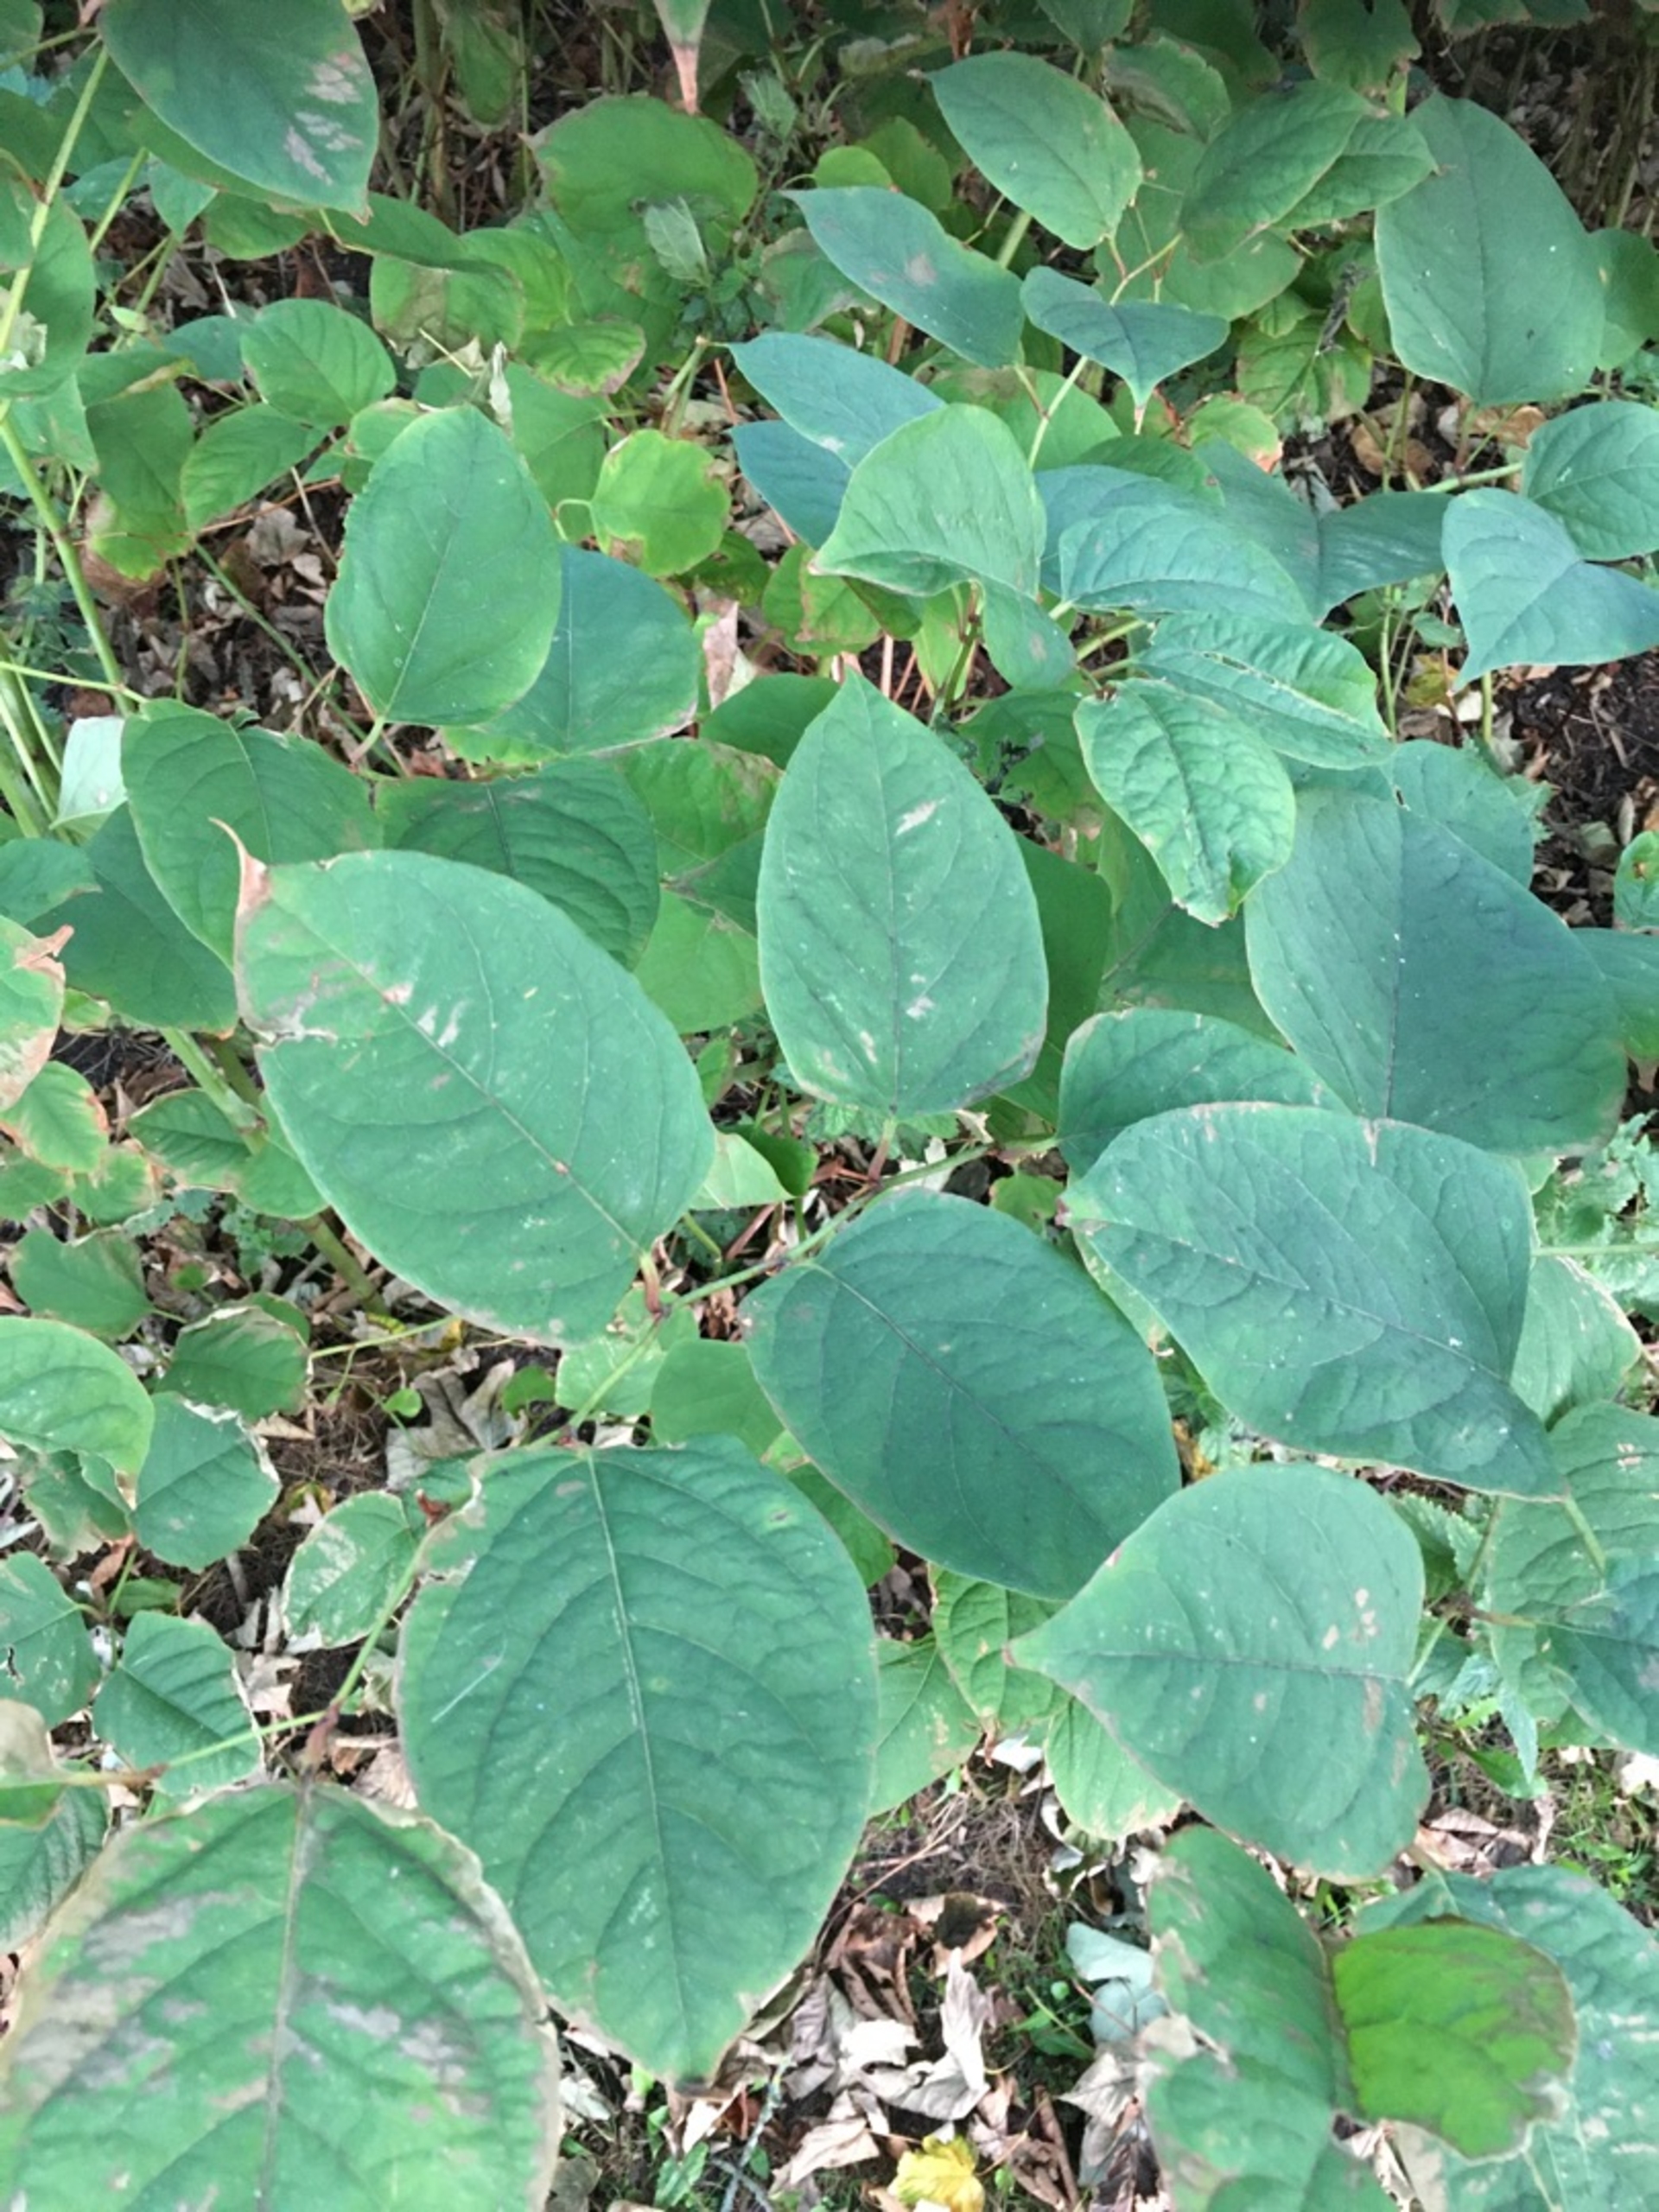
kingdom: Plantae
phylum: Tracheophyta
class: Magnoliopsida
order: Caryophyllales
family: Polygonaceae
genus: Reynoutria
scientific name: Reynoutria japonica
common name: Japan-pileurt
